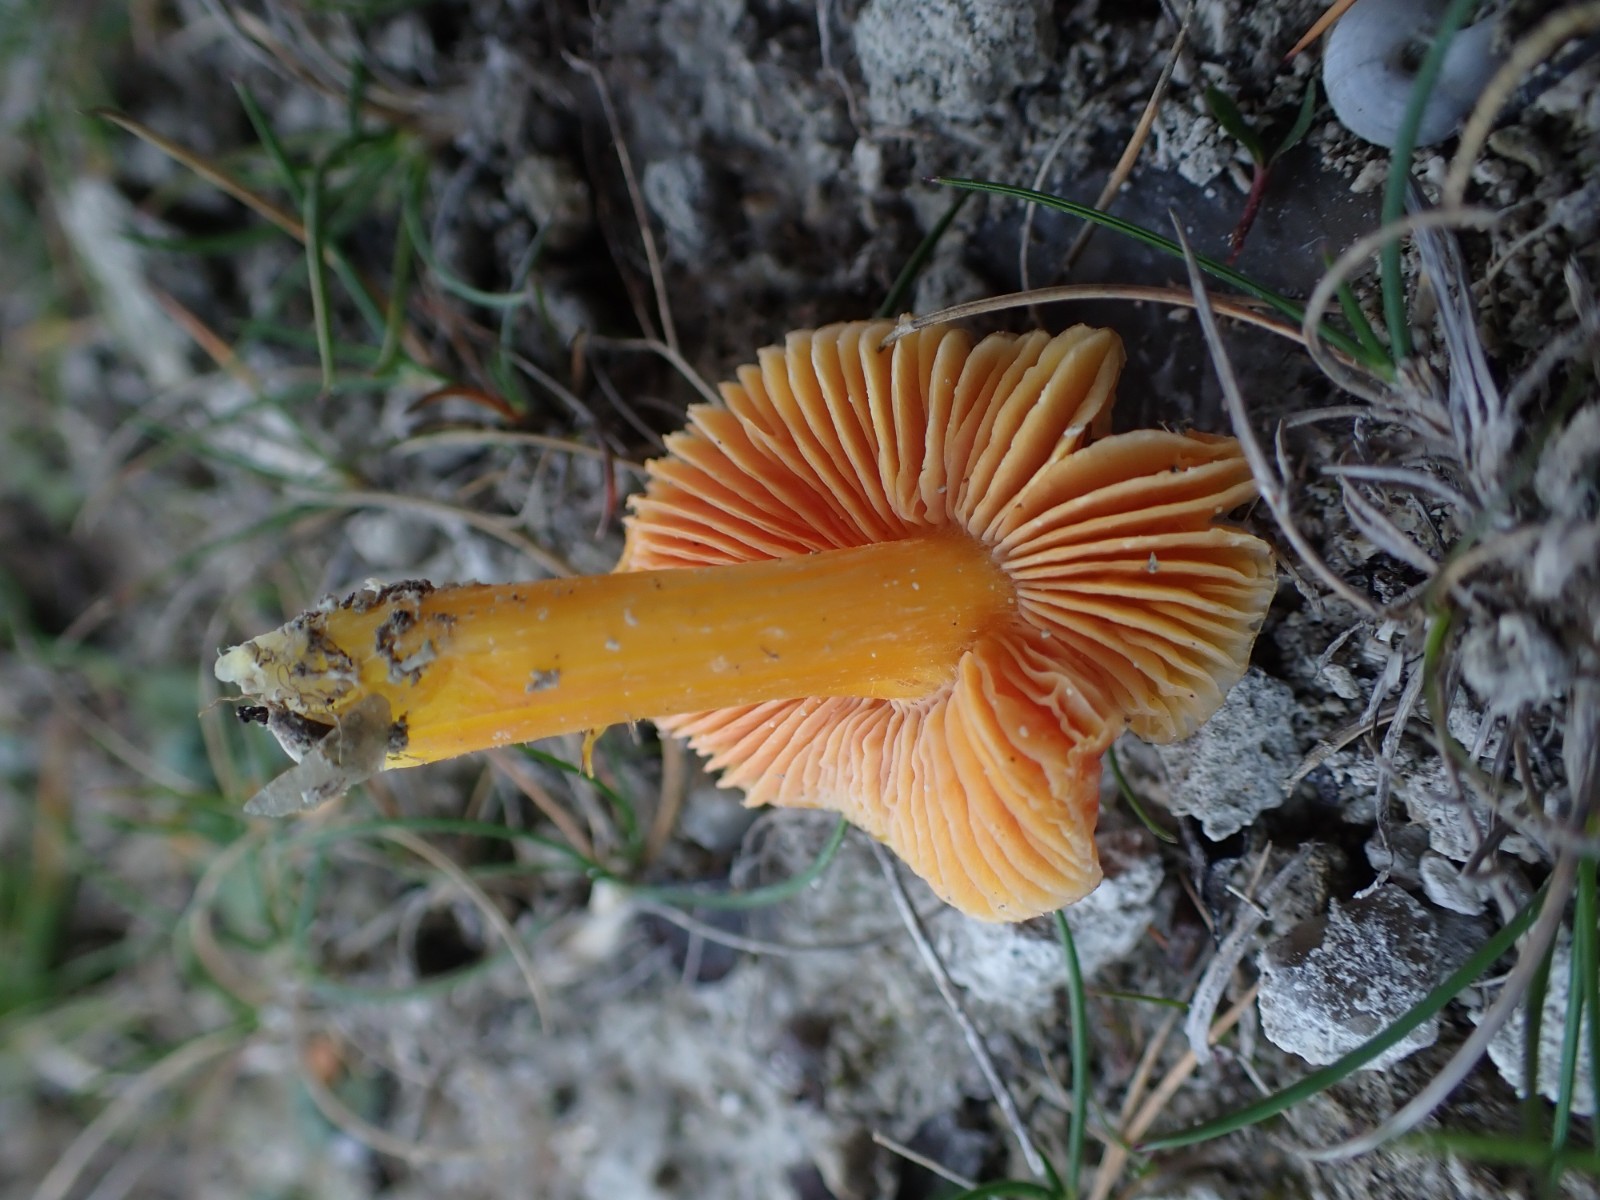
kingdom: Fungi
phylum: Basidiomycota
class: Agaricomycetes
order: Agaricales
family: Hygrophoraceae
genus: Hygrocybe
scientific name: Hygrocybe acutoconica
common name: Konrads vokshat
